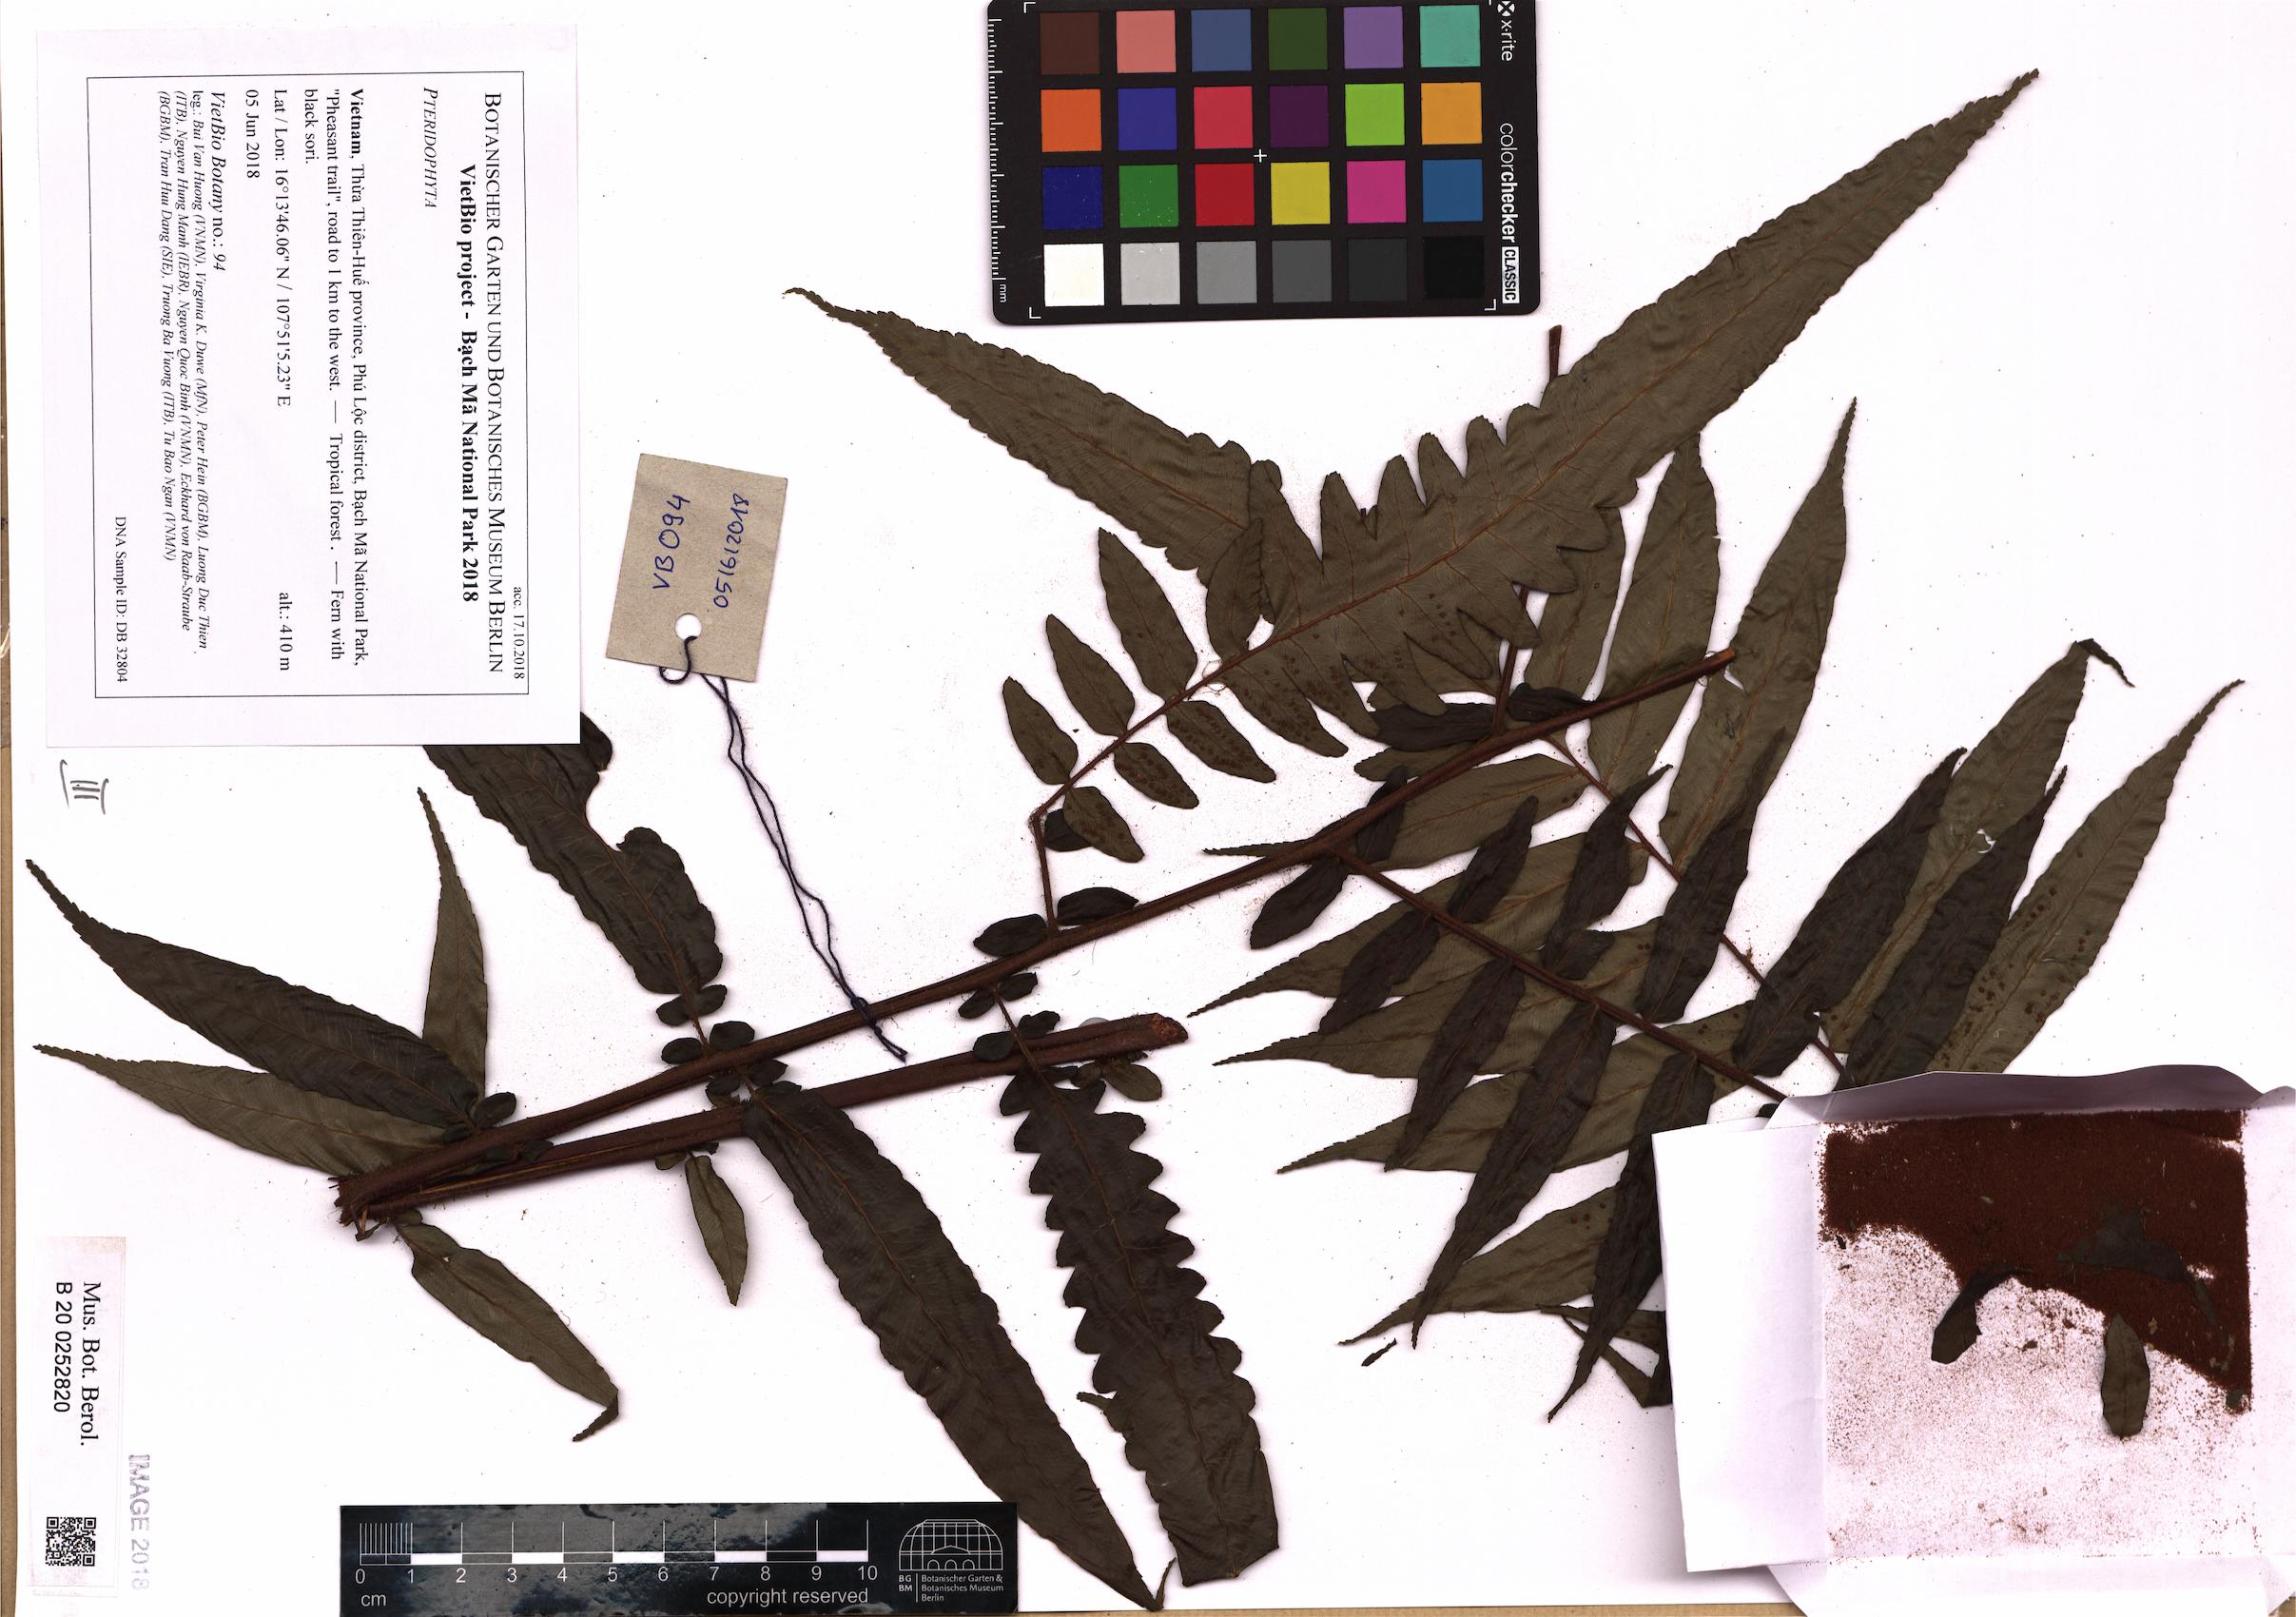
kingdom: Plantae
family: Pteridophyta
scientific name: Pteridophyta
